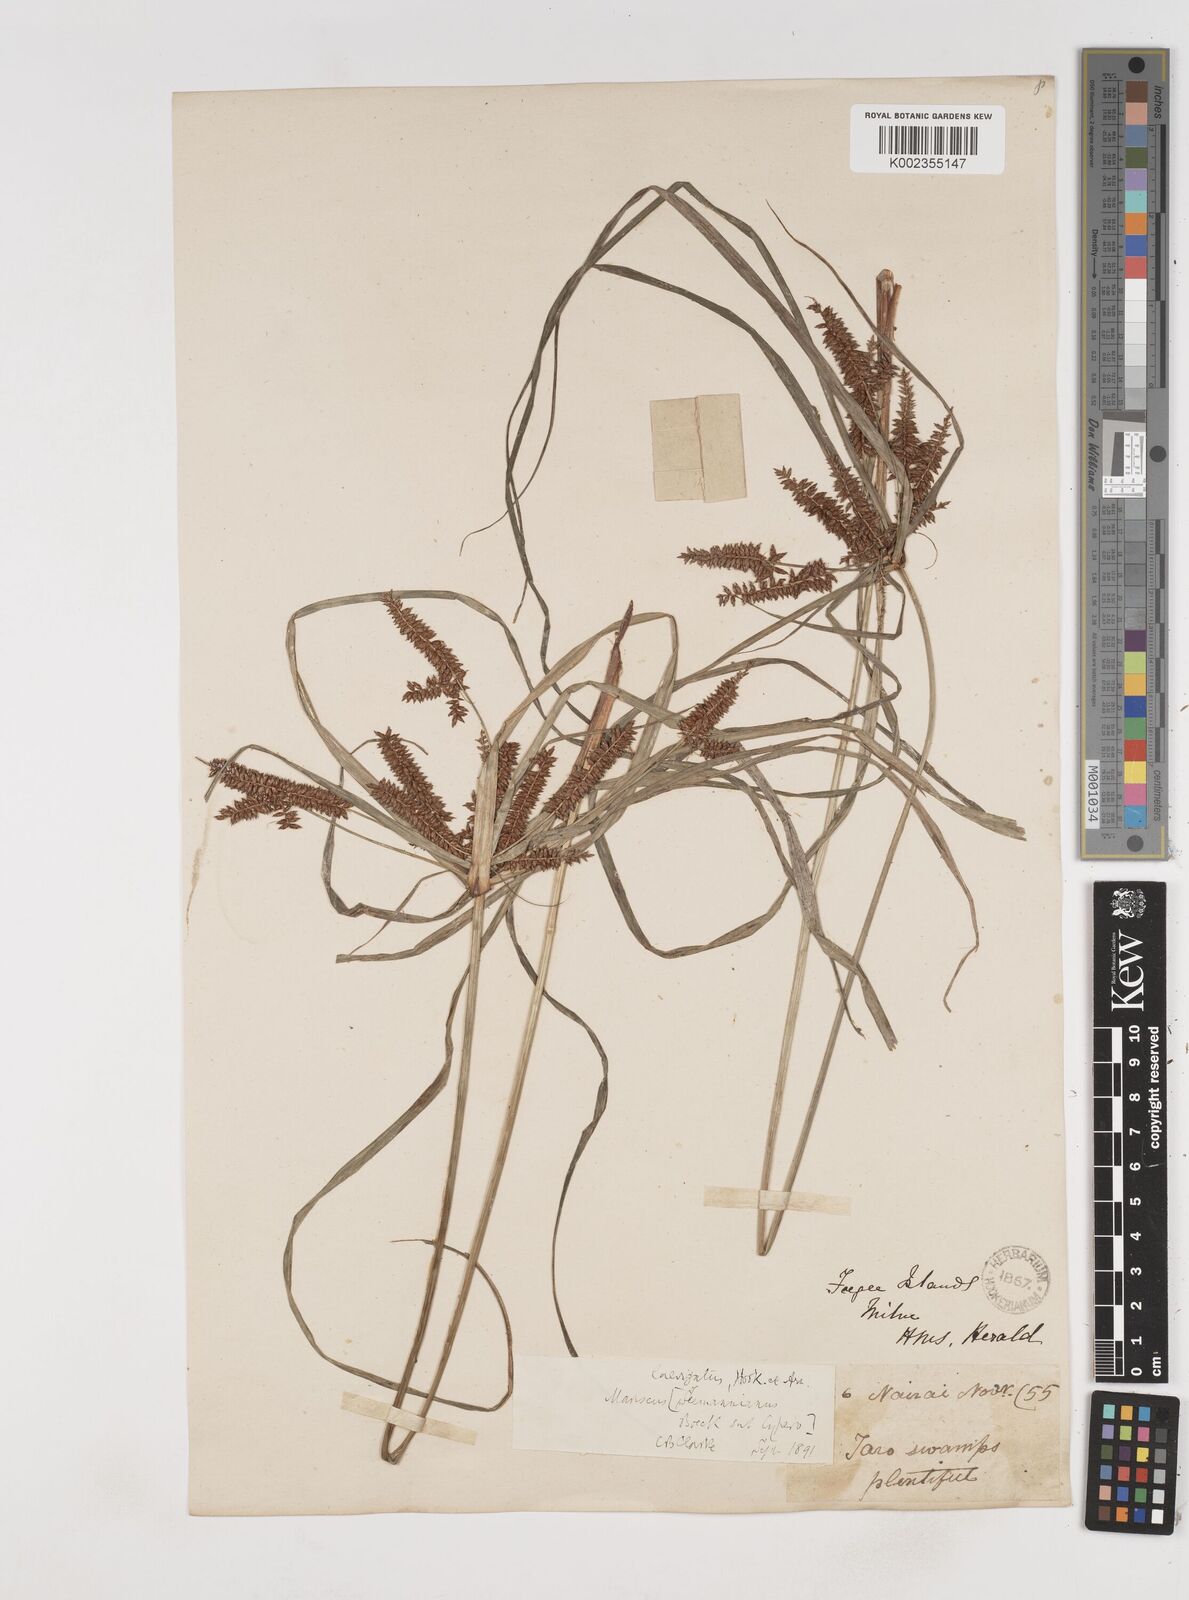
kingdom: Plantae
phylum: Tracheophyta
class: Liliopsida
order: Poales
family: Cyperaceae
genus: Cyperus
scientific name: Cyperus seemannianus
